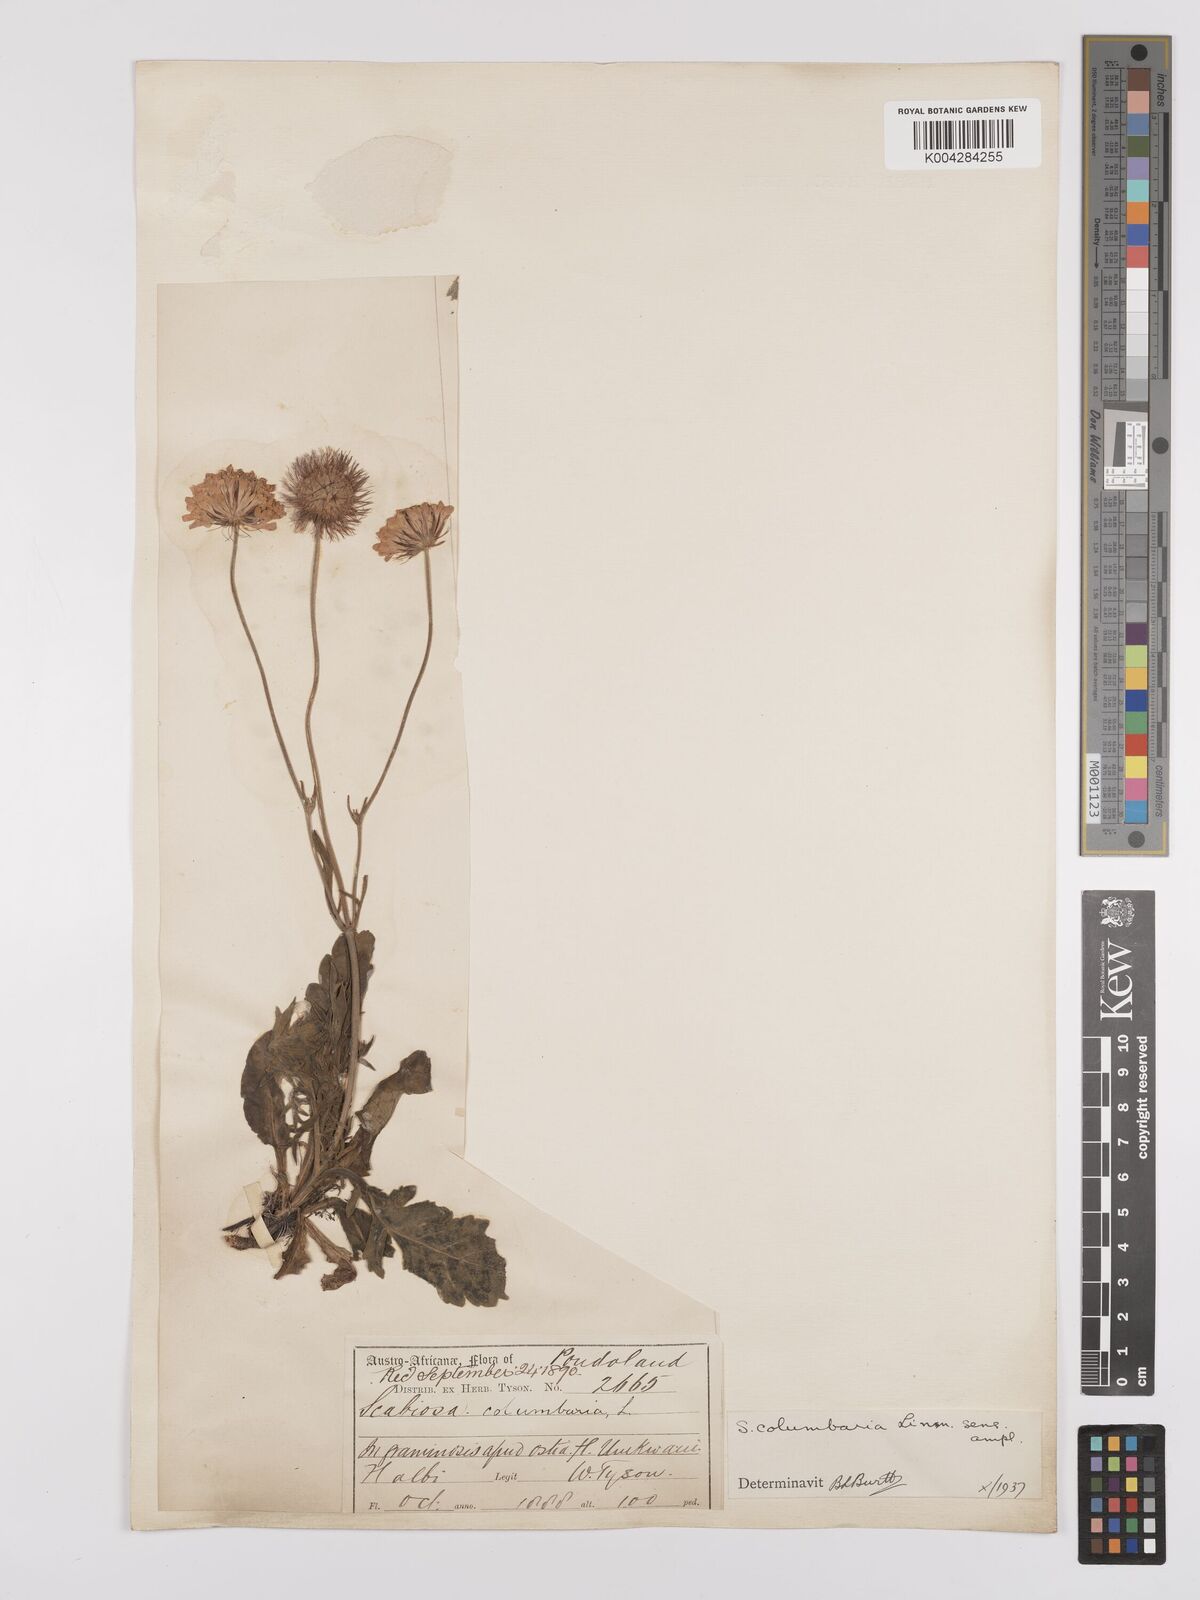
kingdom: Plantae
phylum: Tracheophyta
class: Magnoliopsida
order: Dipsacales
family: Caprifoliaceae
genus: Scabiosa
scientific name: Scabiosa columbaria
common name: Small scabious
